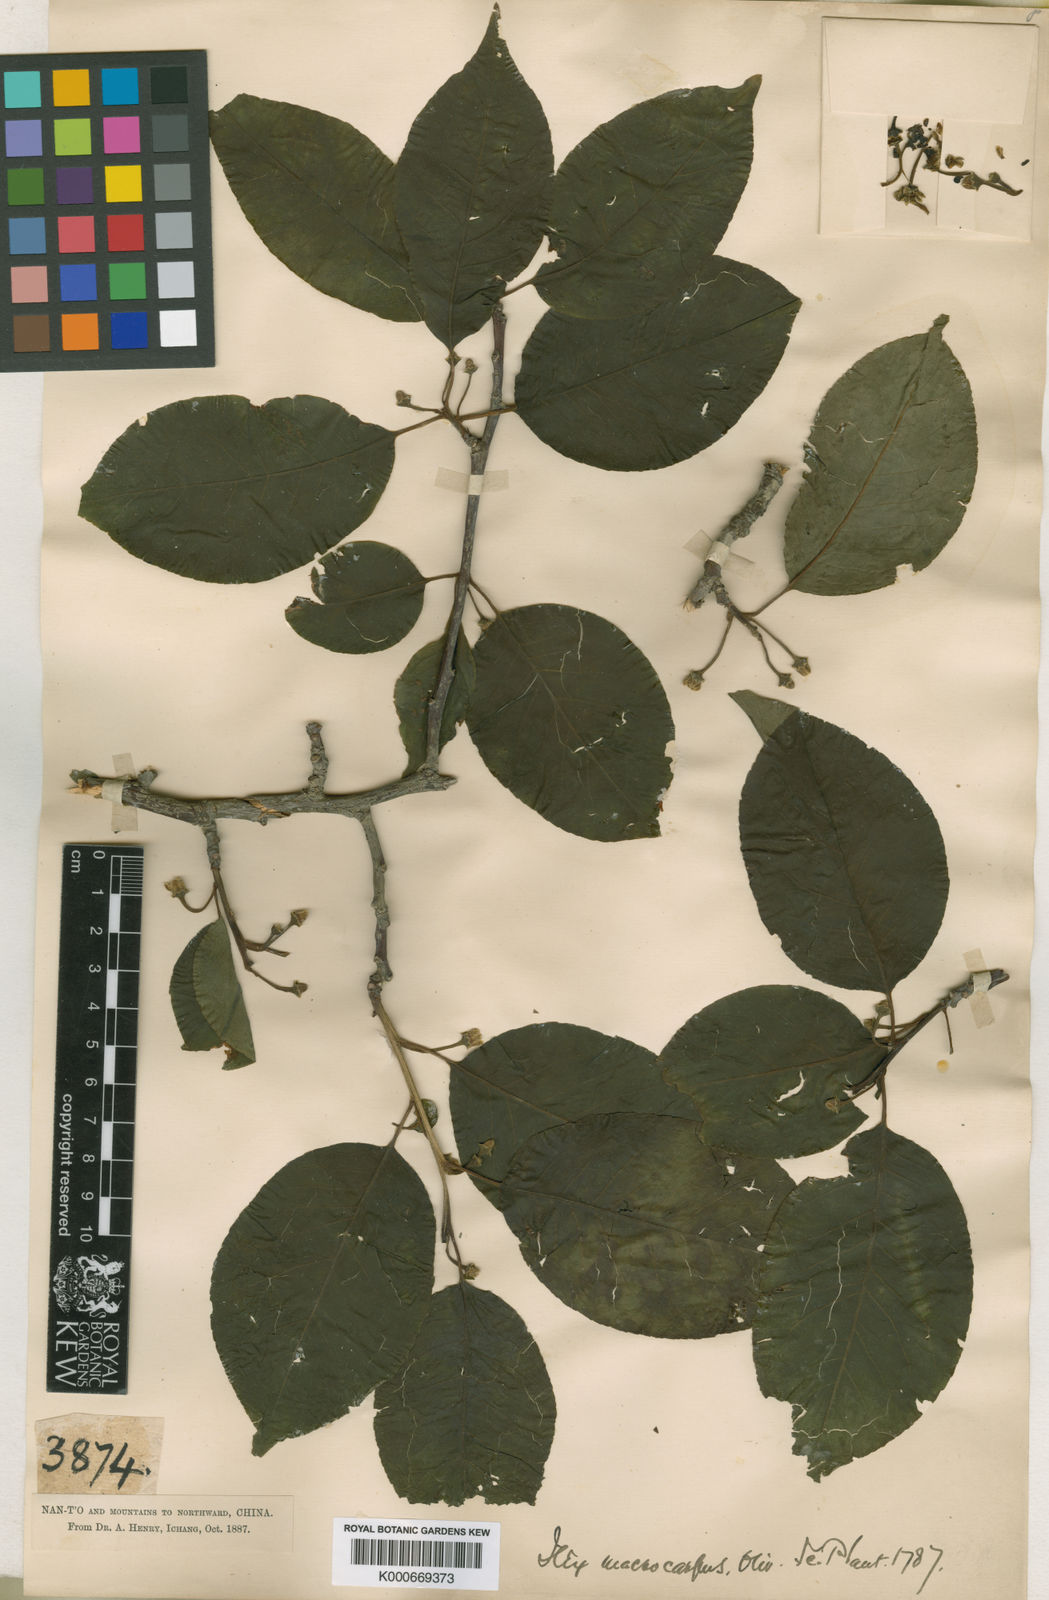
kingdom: Plantae
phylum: Tracheophyta
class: Magnoliopsida
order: Aquifoliales
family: Aquifoliaceae
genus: Ilex
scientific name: Ilex macrocarpa
